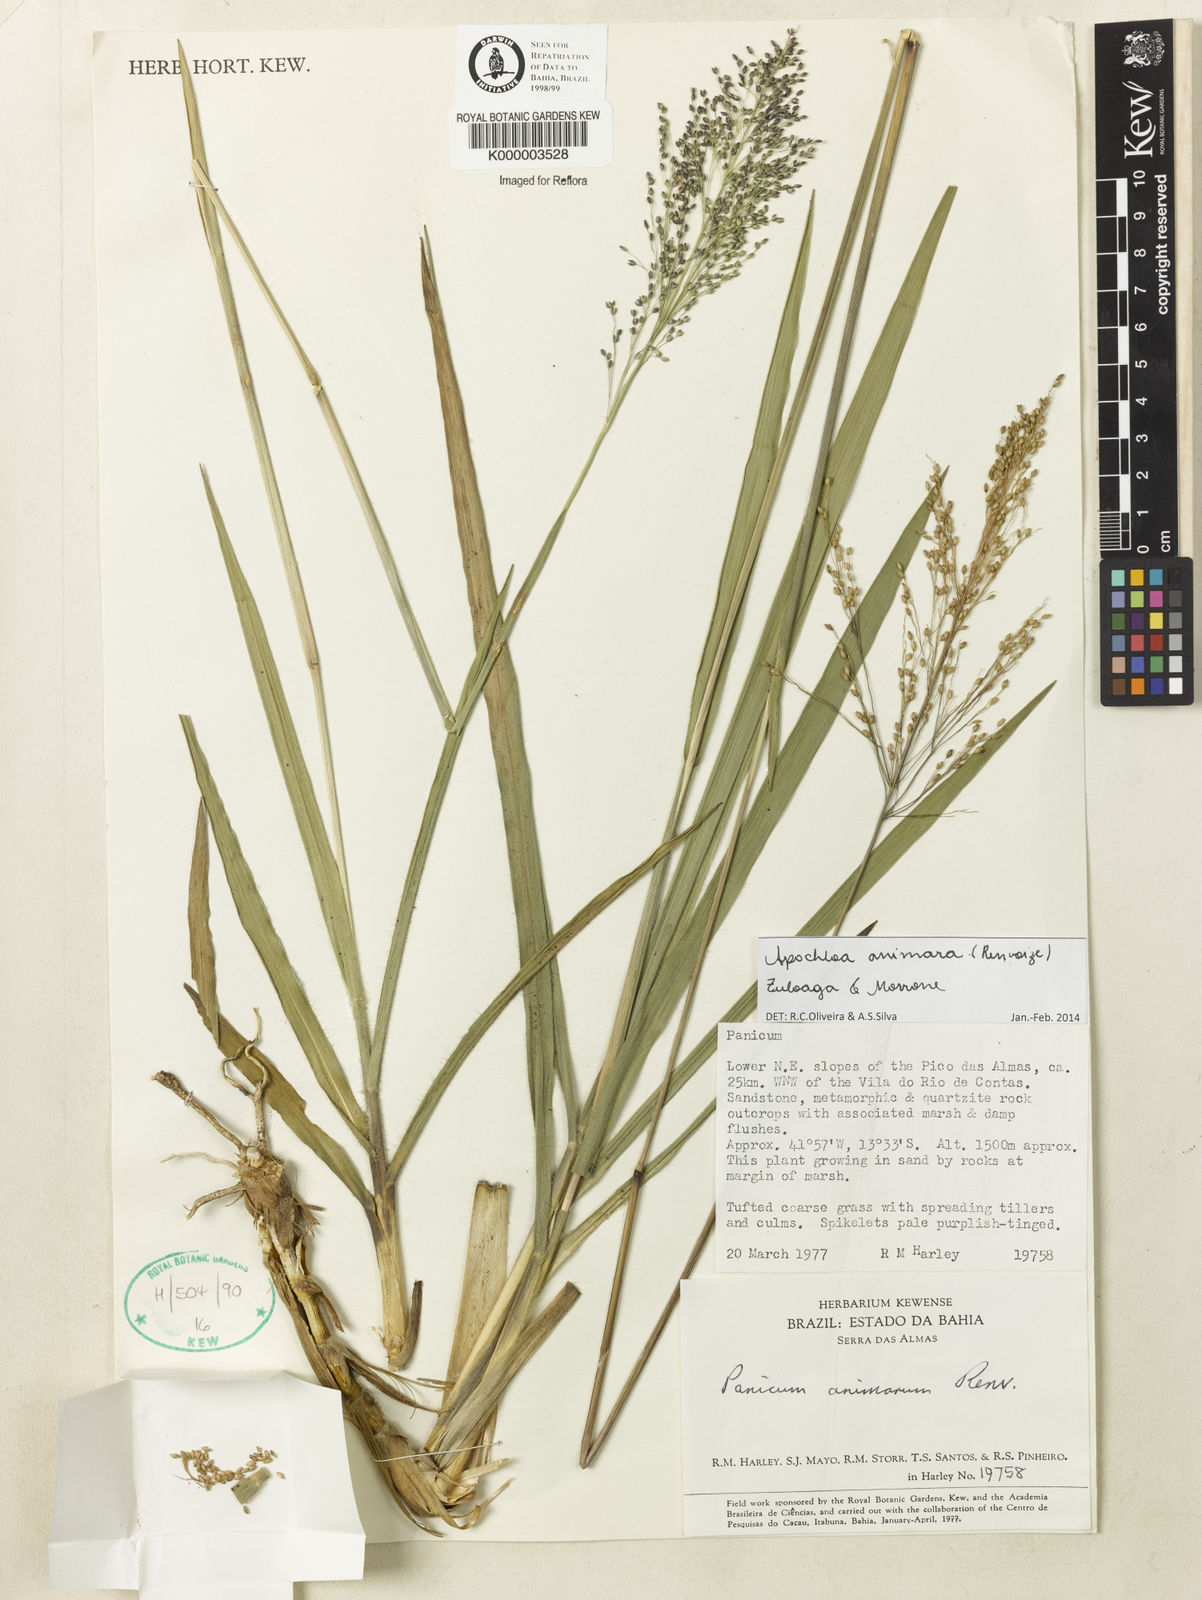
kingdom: Plantae
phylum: Tracheophyta
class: Liliopsida
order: Poales
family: Poaceae
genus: Apochloa
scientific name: Apochloa animara
